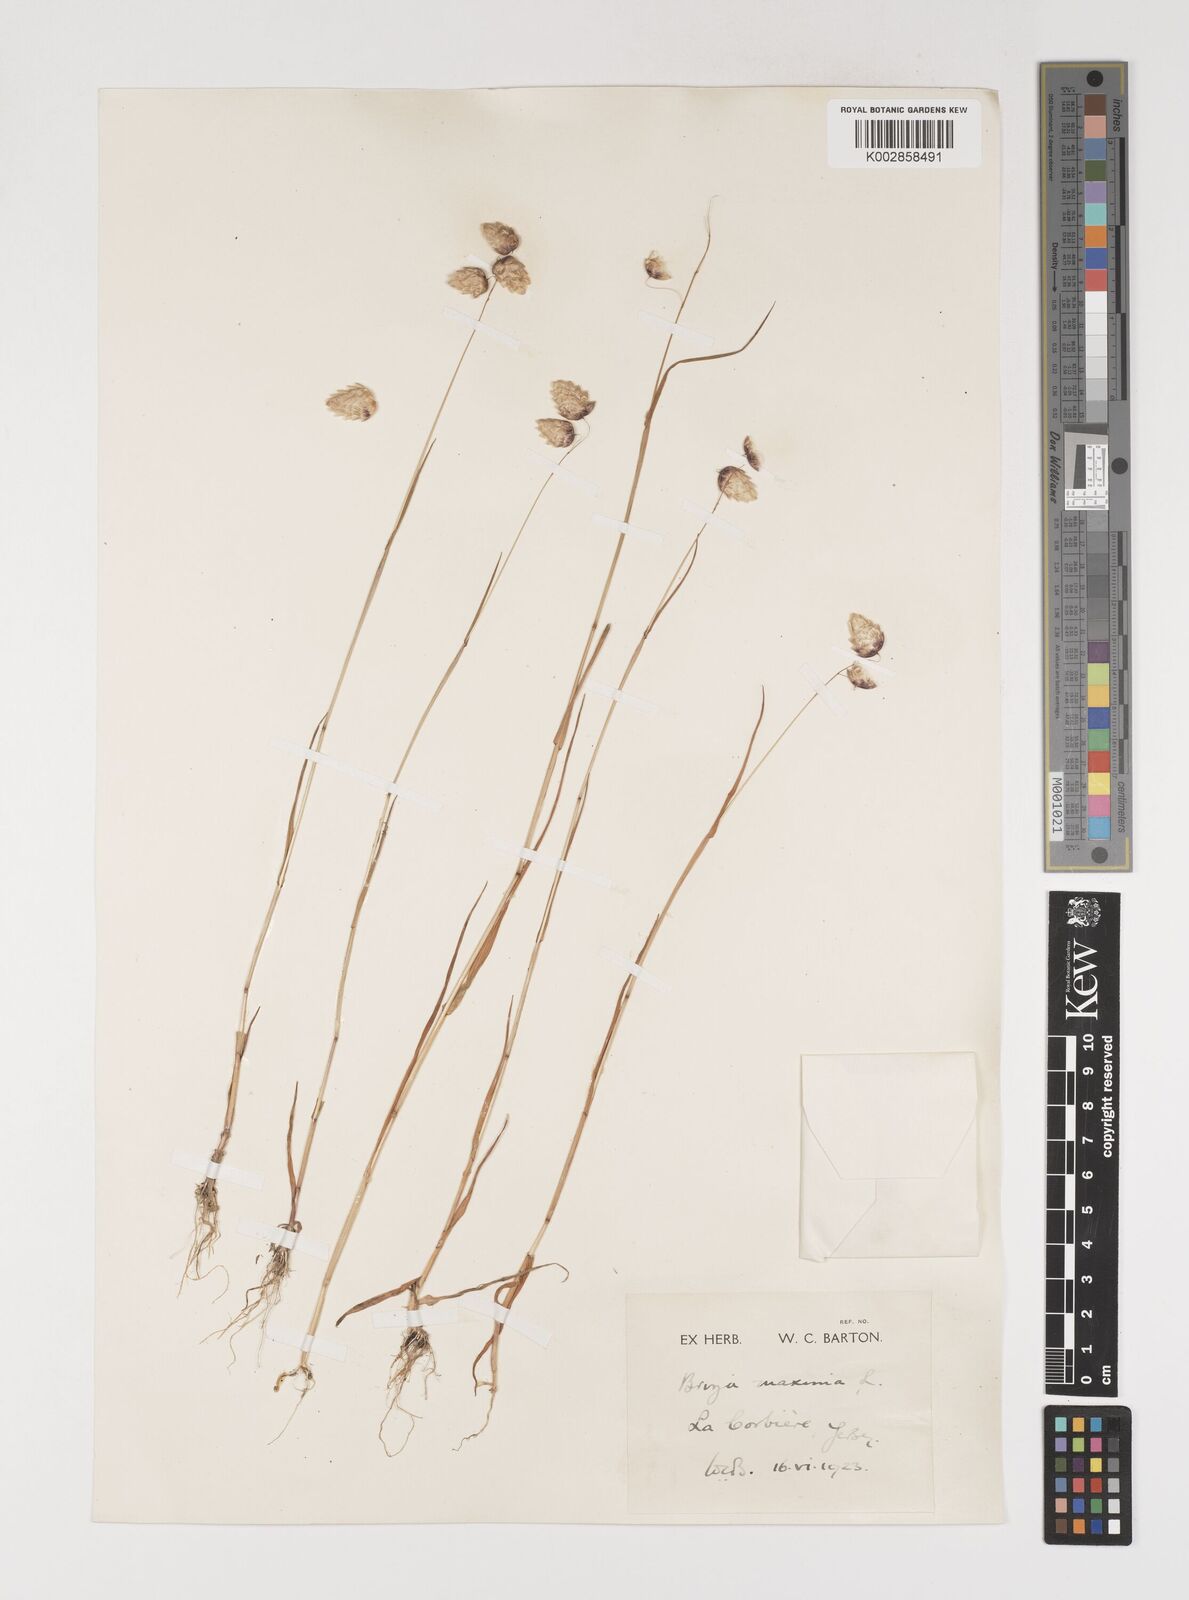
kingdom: Plantae
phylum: Tracheophyta
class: Liliopsida
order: Poales
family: Poaceae
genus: Briza
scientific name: Briza maxima
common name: Big quakinggrass
